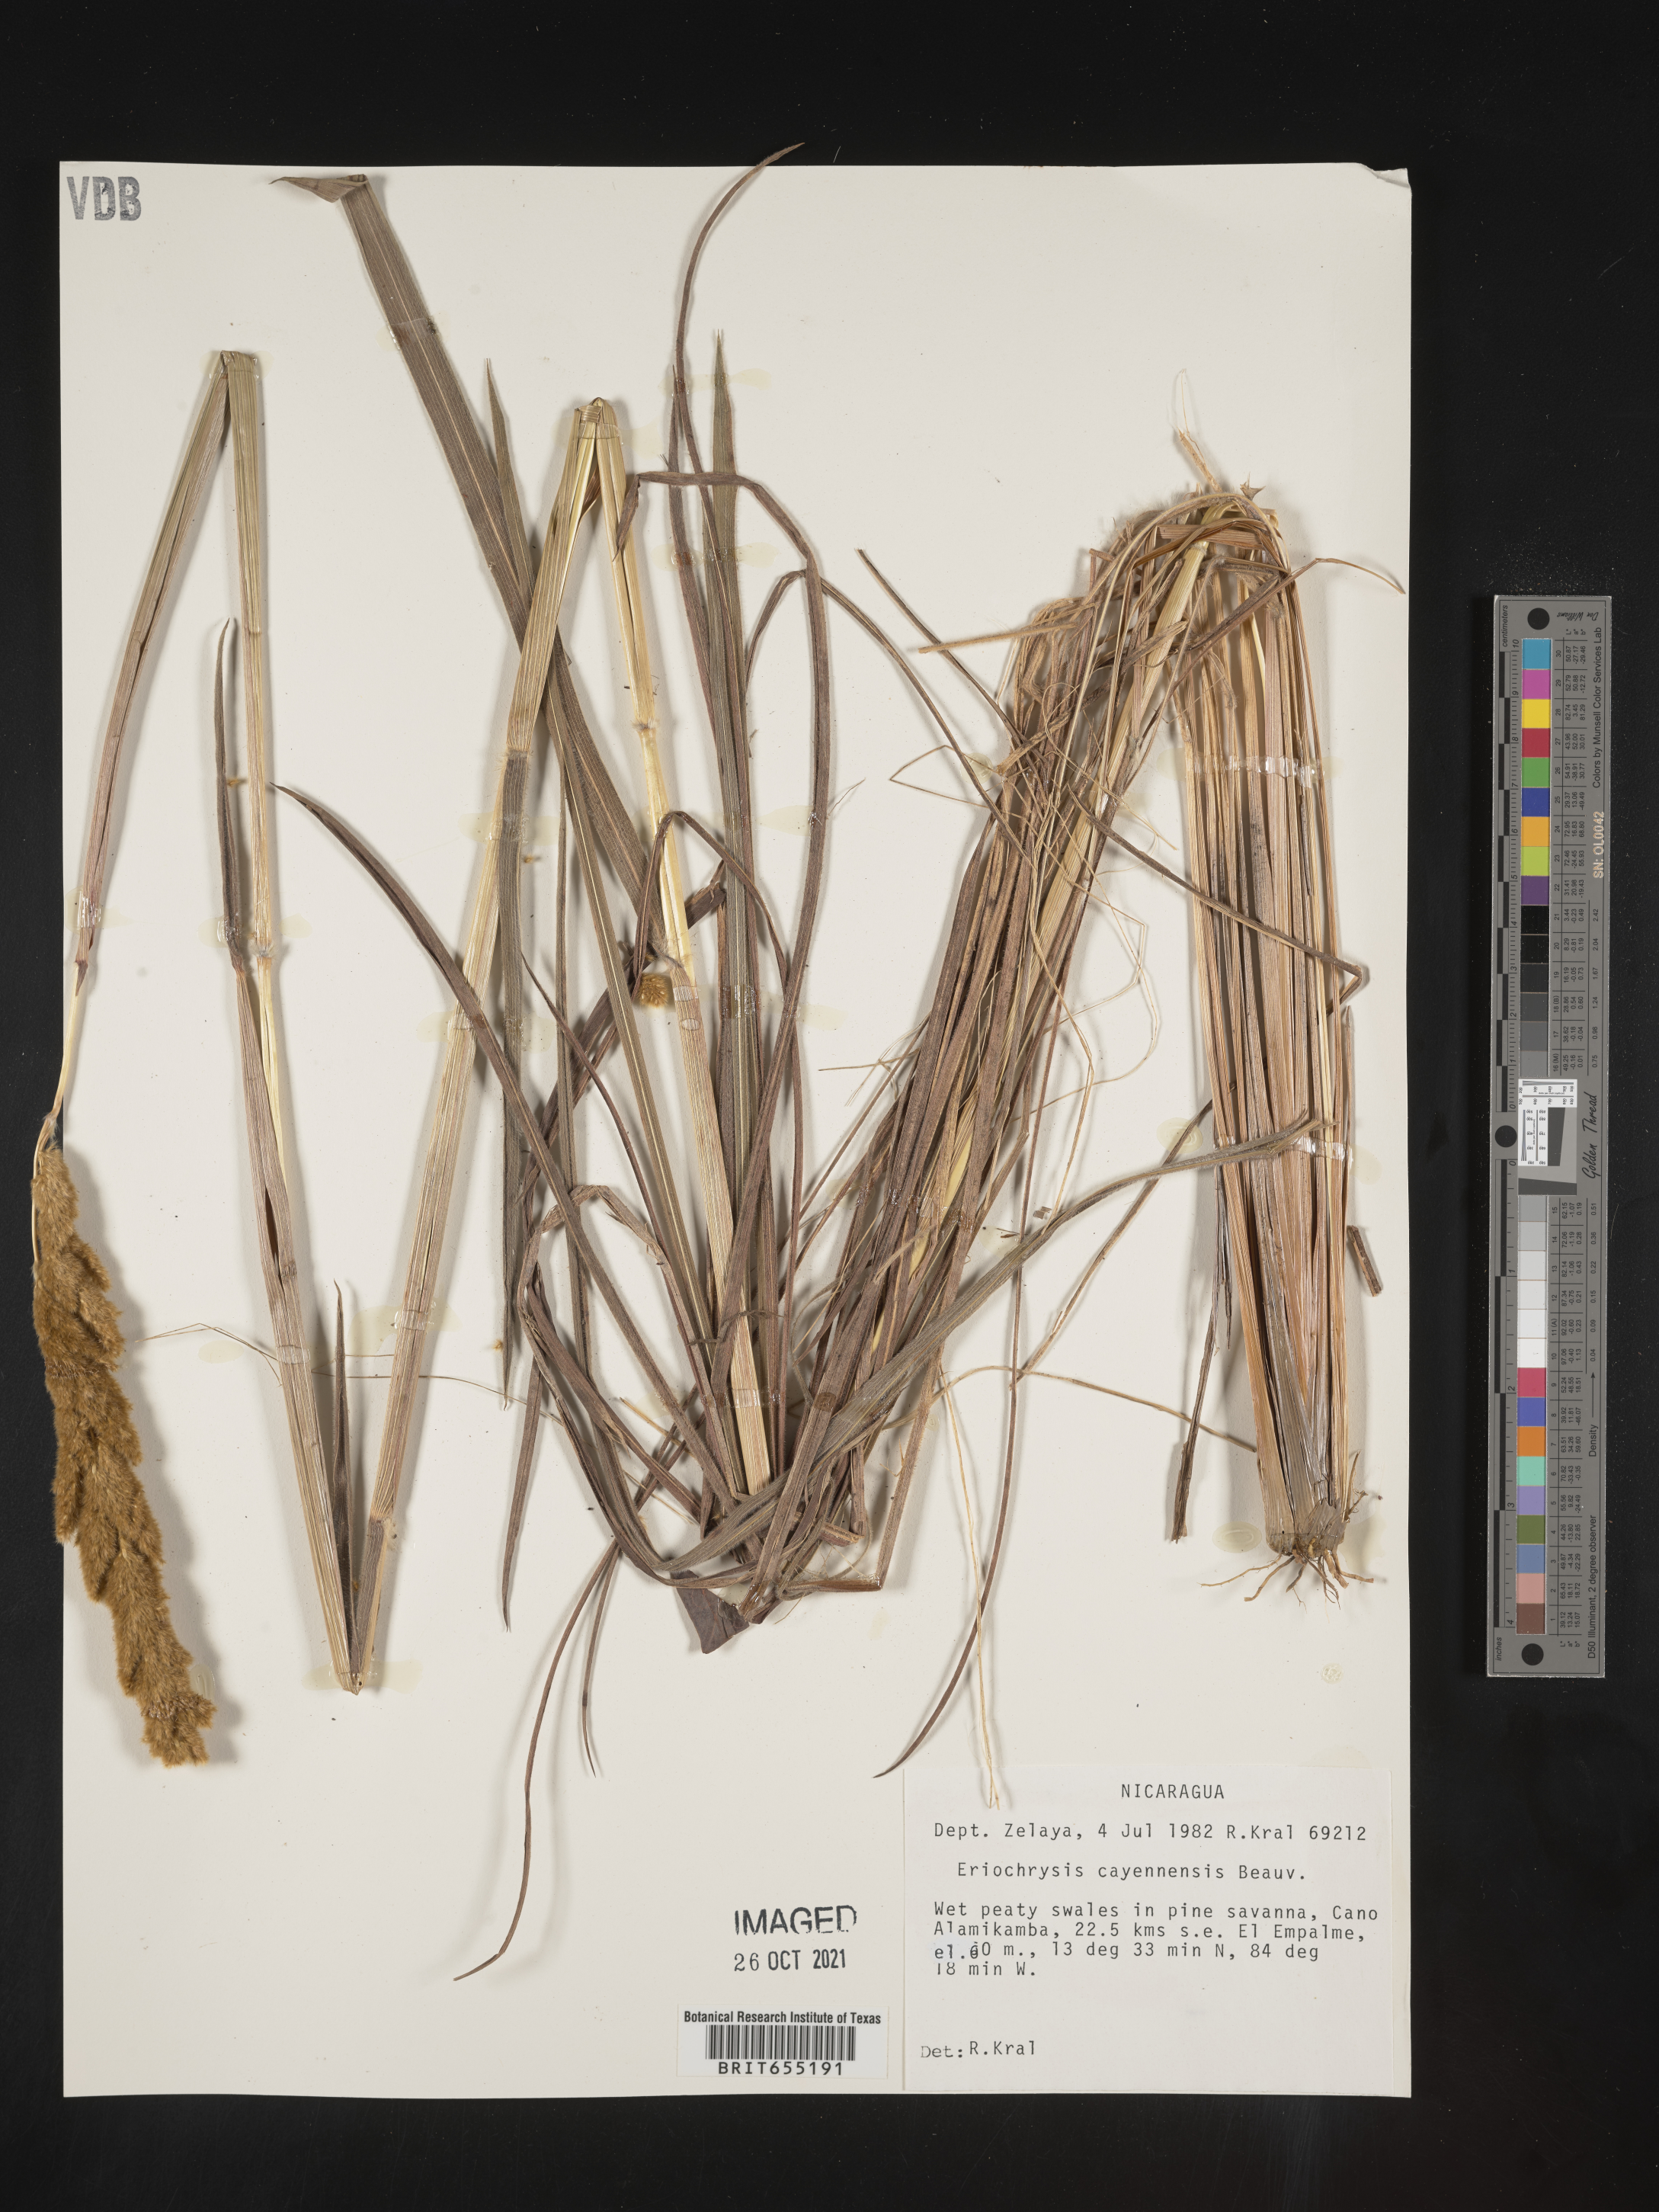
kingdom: Plantae
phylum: Tracheophyta
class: Liliopsida
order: Poales
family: Poaceae
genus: Eriochrysis
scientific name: Eriochrysis
